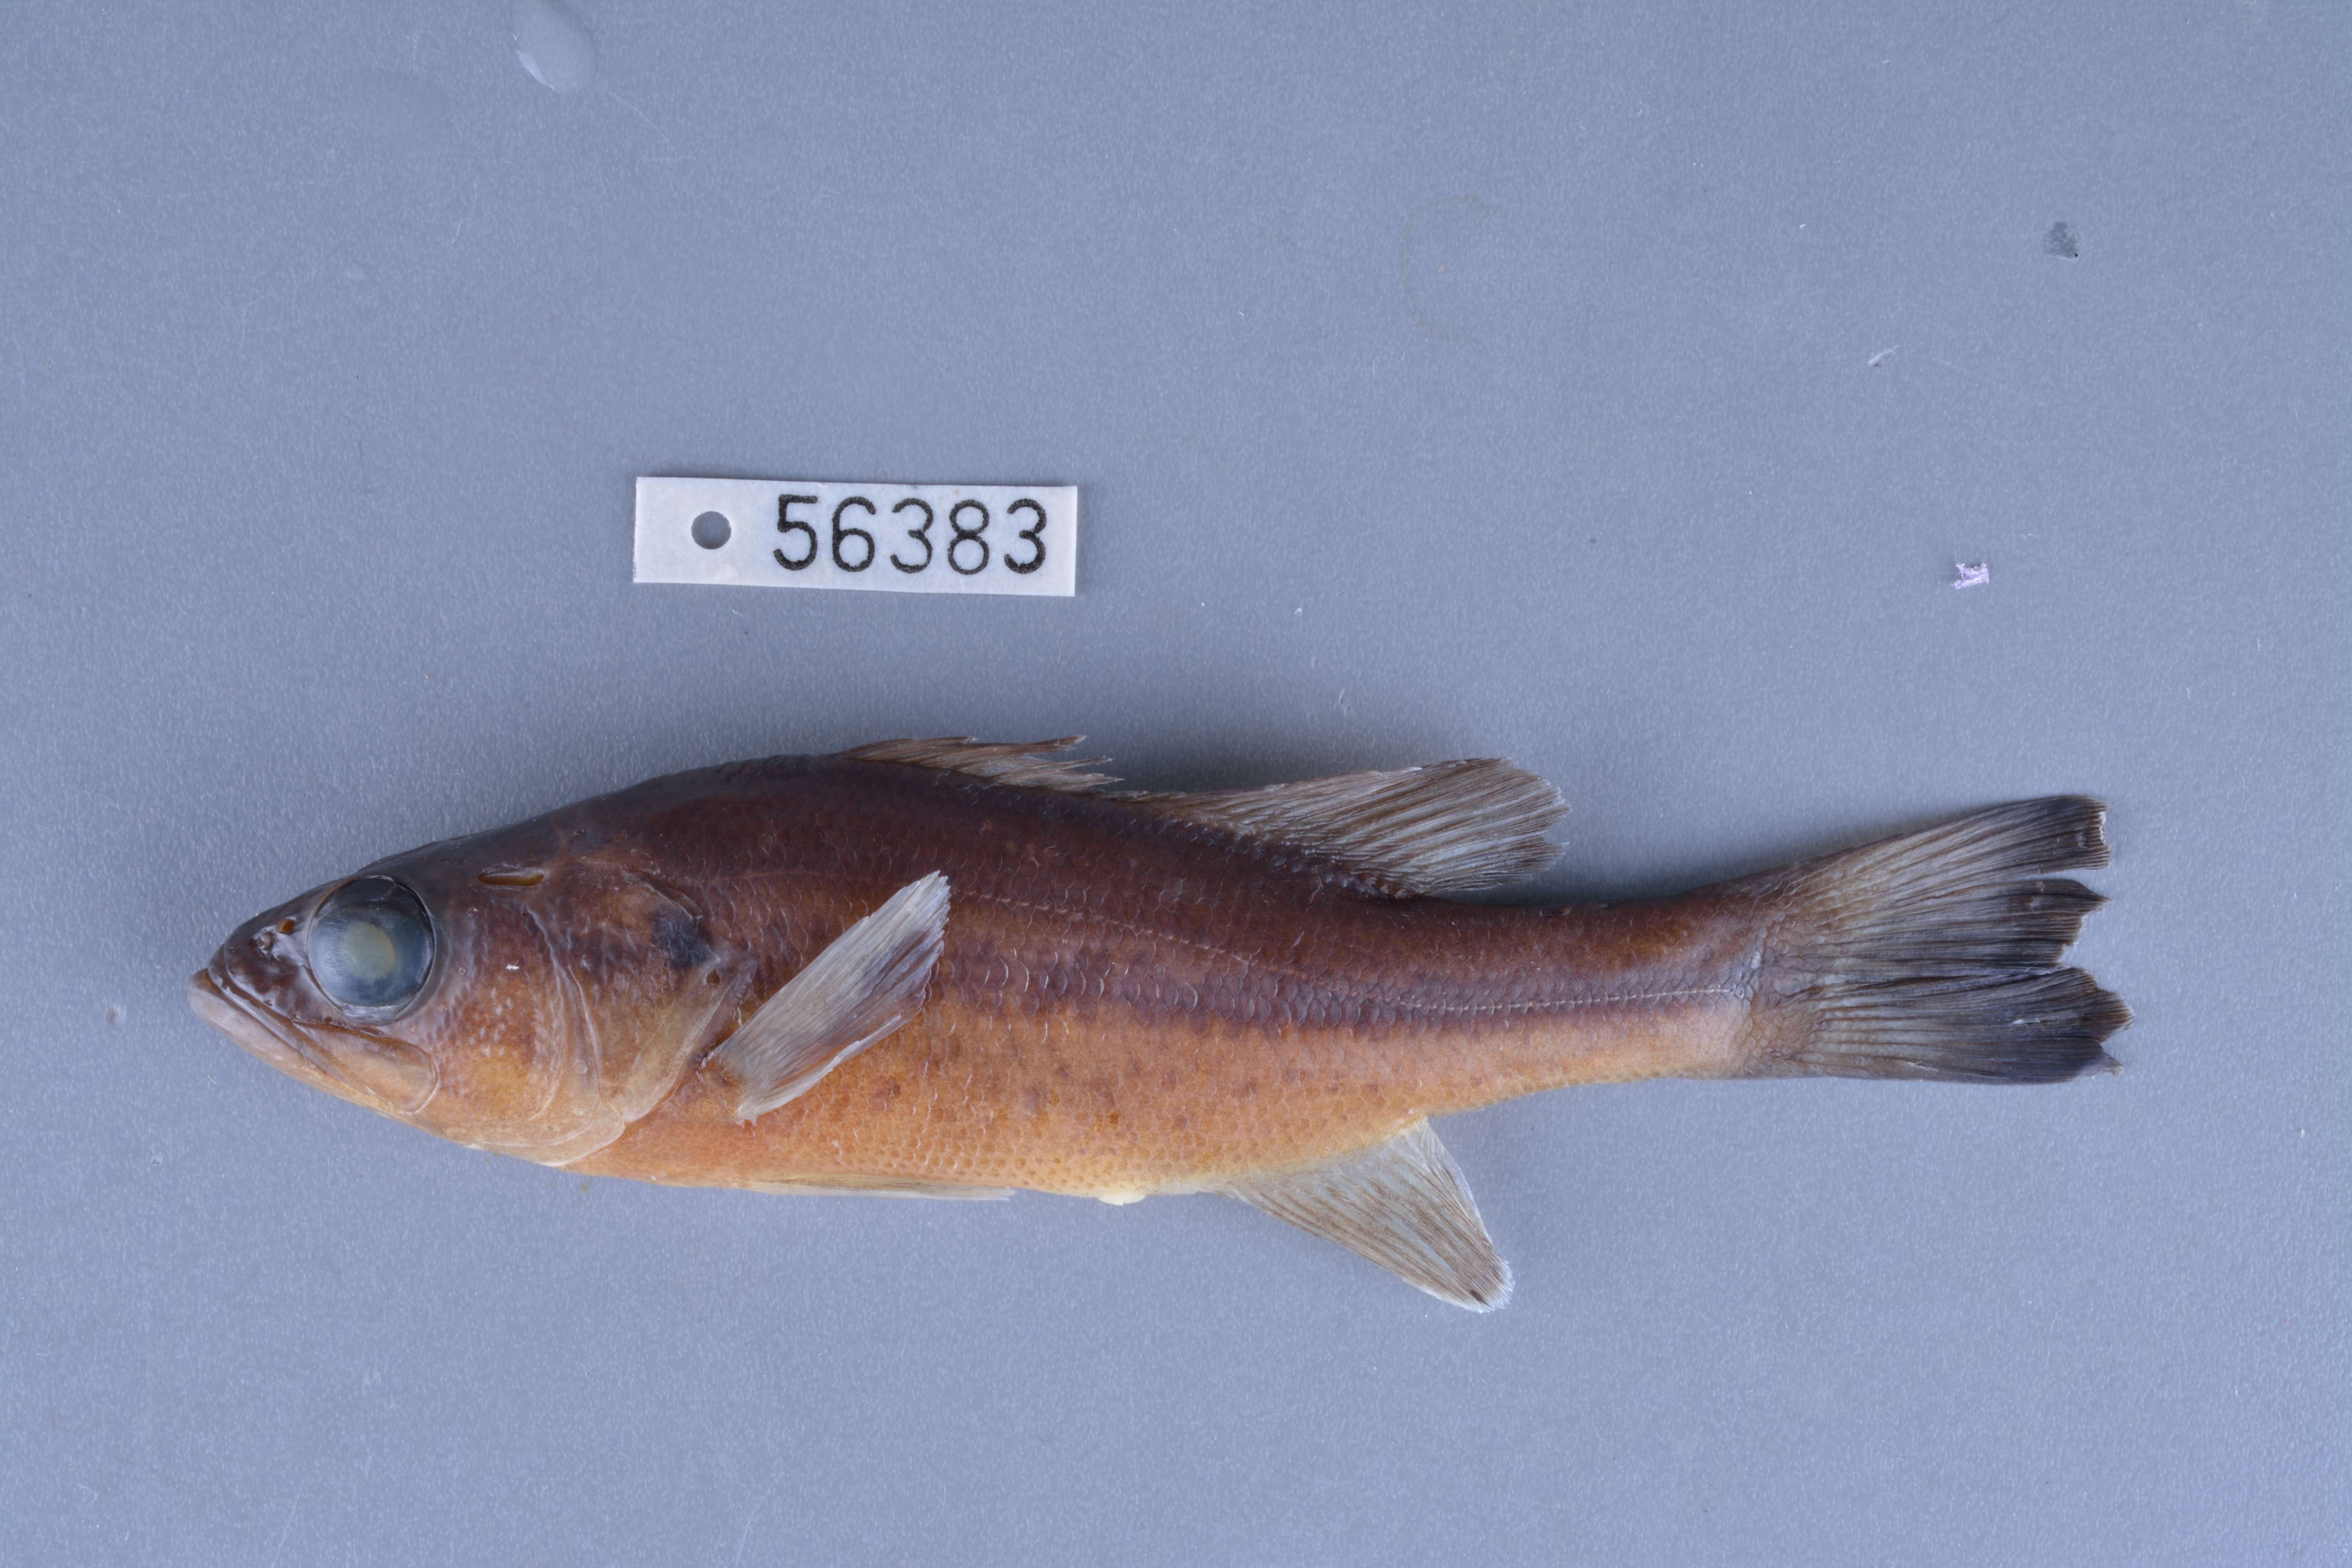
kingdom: Animalia
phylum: Chordata
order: Perciformes
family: Centrarchidae
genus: Micropterus
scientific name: Micropterus salmoides
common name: Largemouth bass
